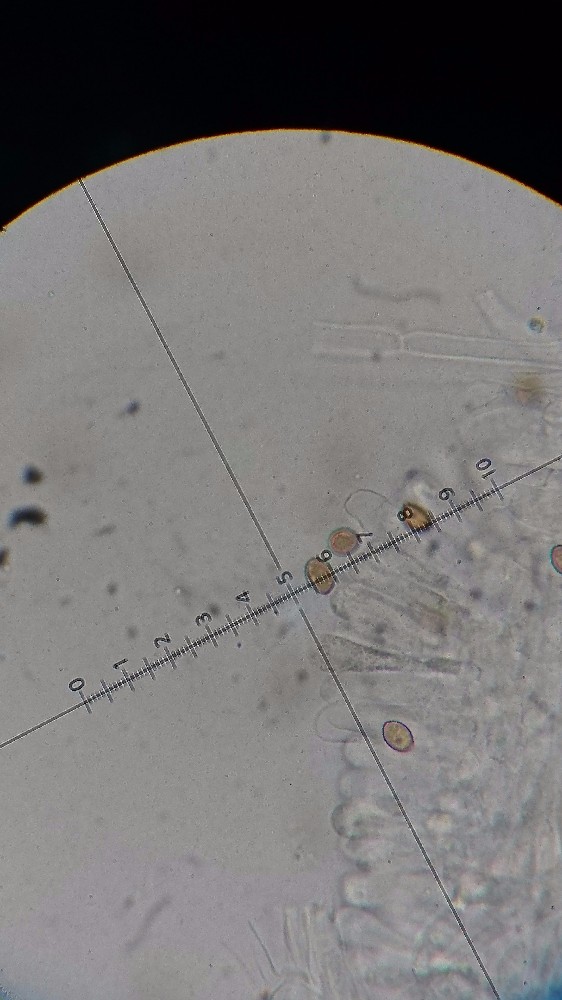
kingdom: Fungi
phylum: Basidiomycota
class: Agaricomycetes
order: Agaricales
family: Inocybaceae
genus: Inocybe
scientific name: Inocybe appendiculata
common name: tandet trævlhat
